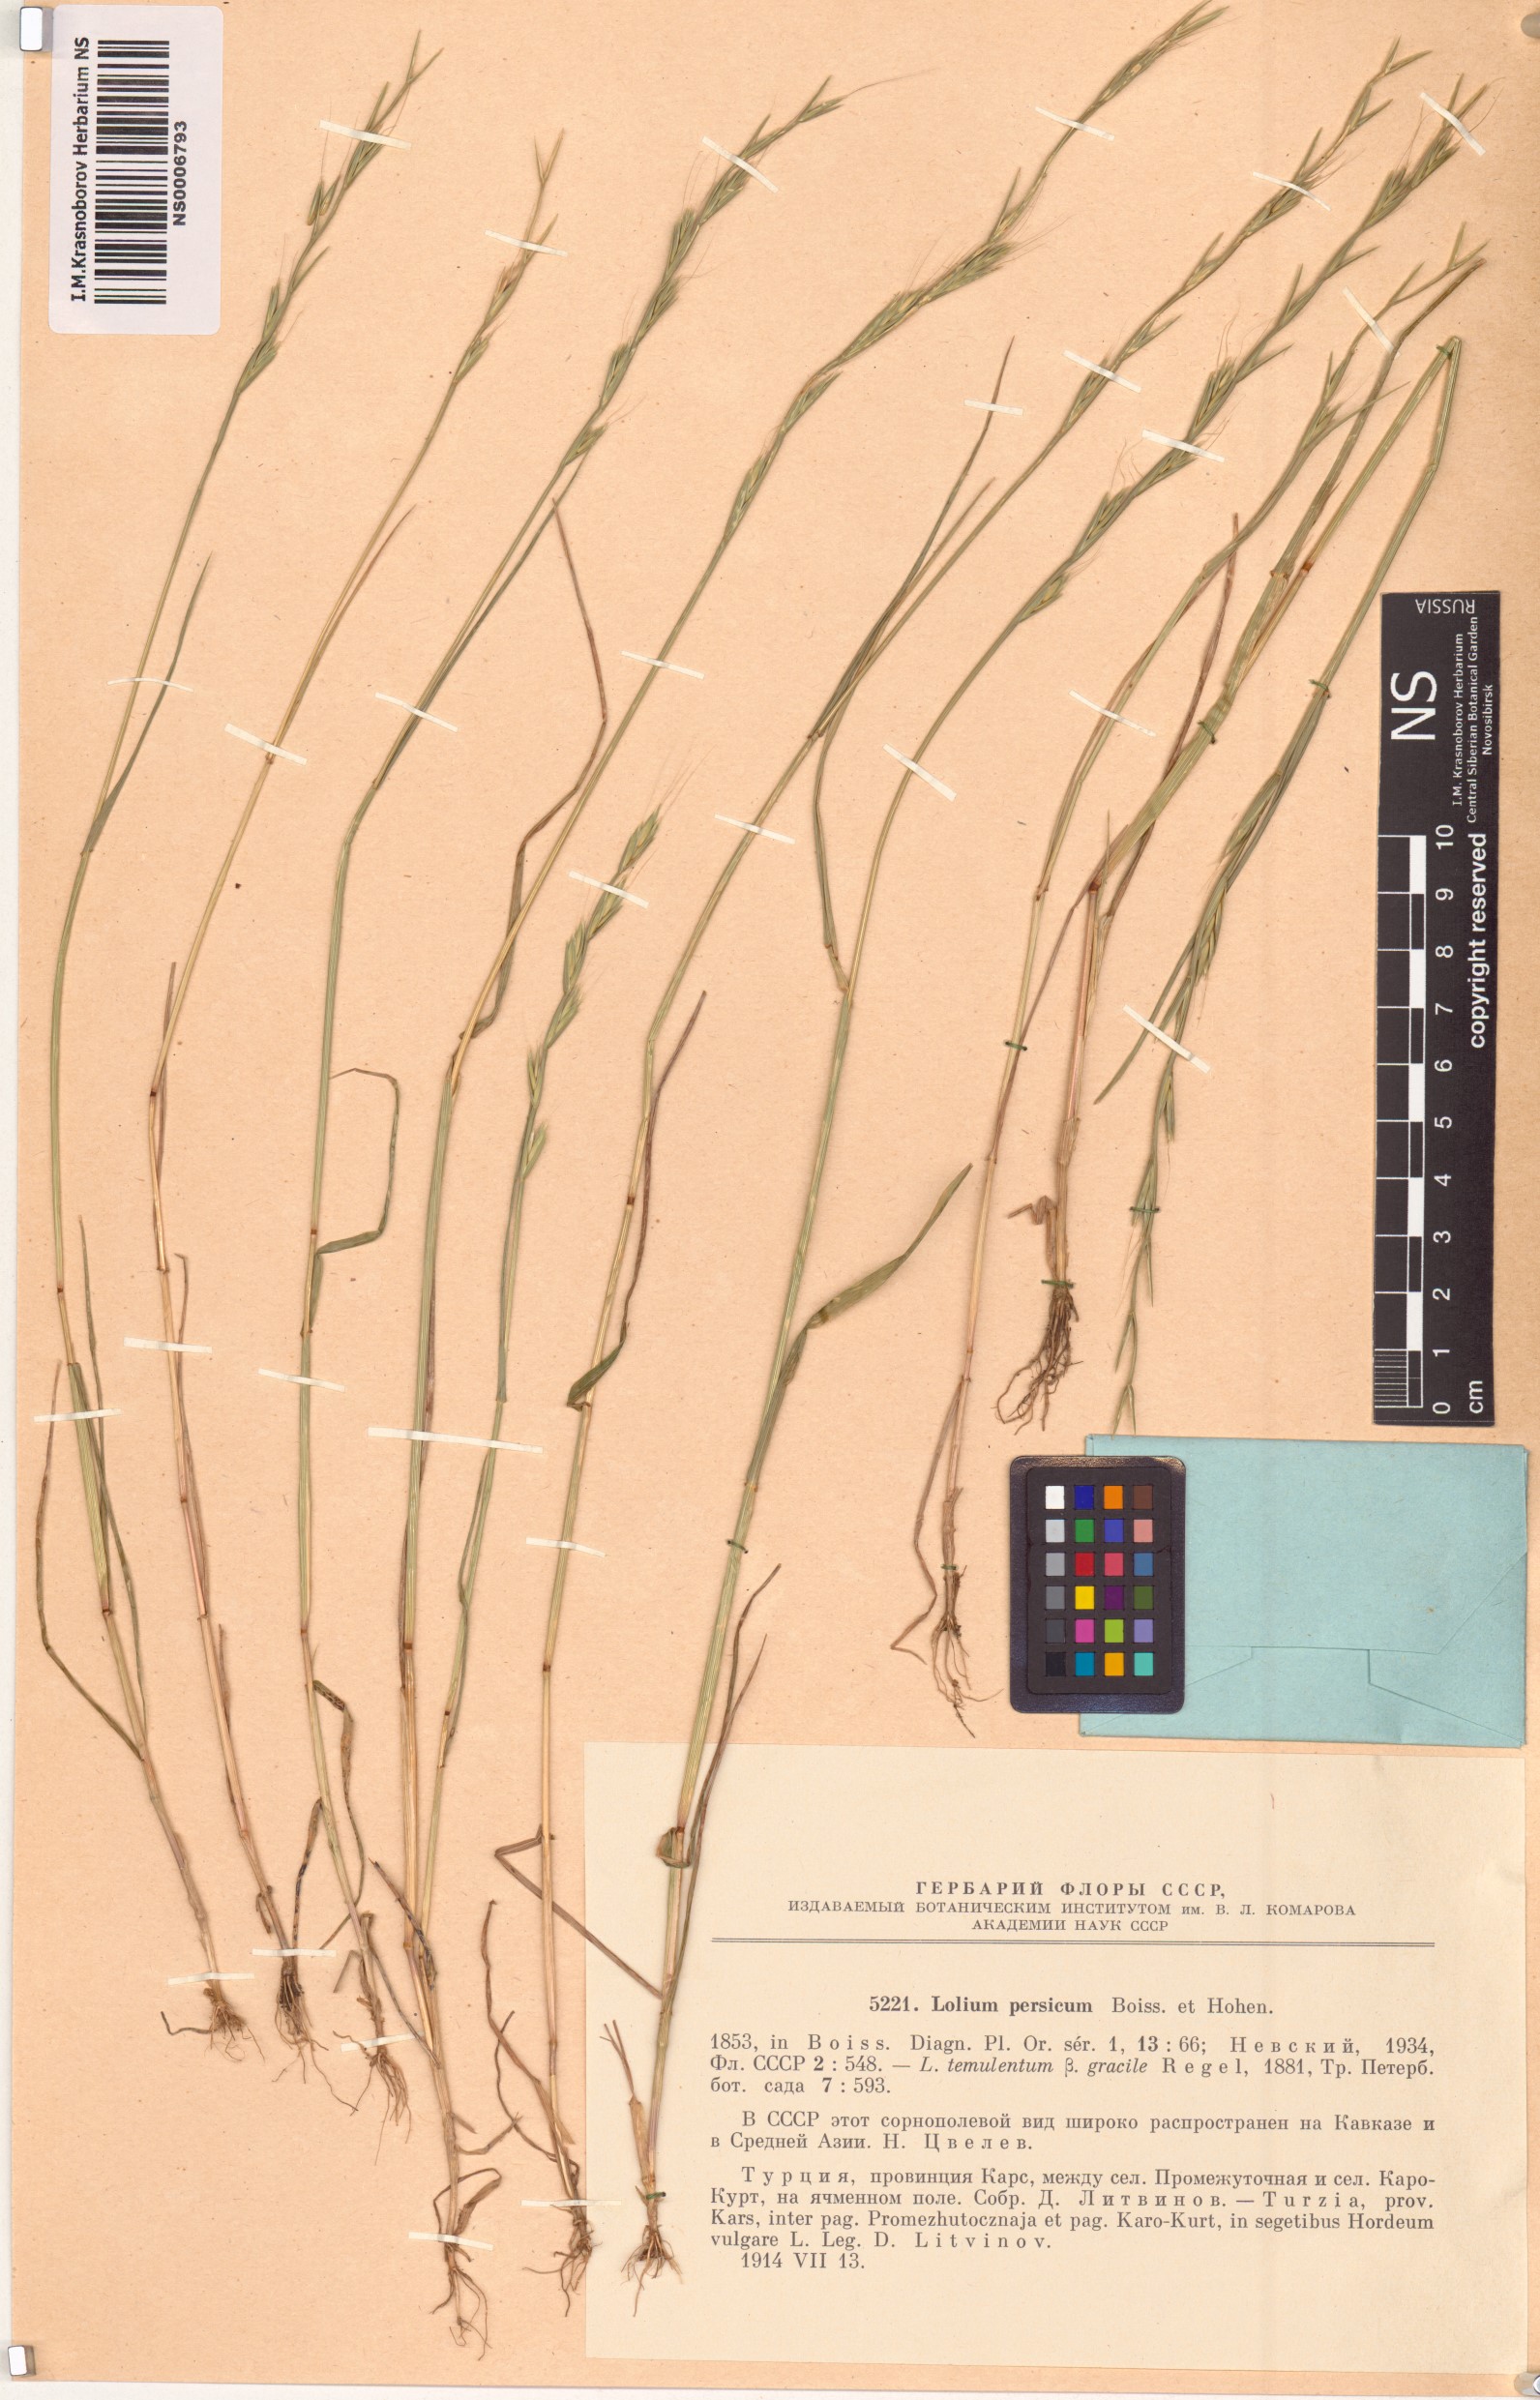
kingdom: Plantae
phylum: Tracheophyta
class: Liliopsida
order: Poales
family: Poaceae
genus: Lolium
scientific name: Lolium persicum
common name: Persian ryegrass
